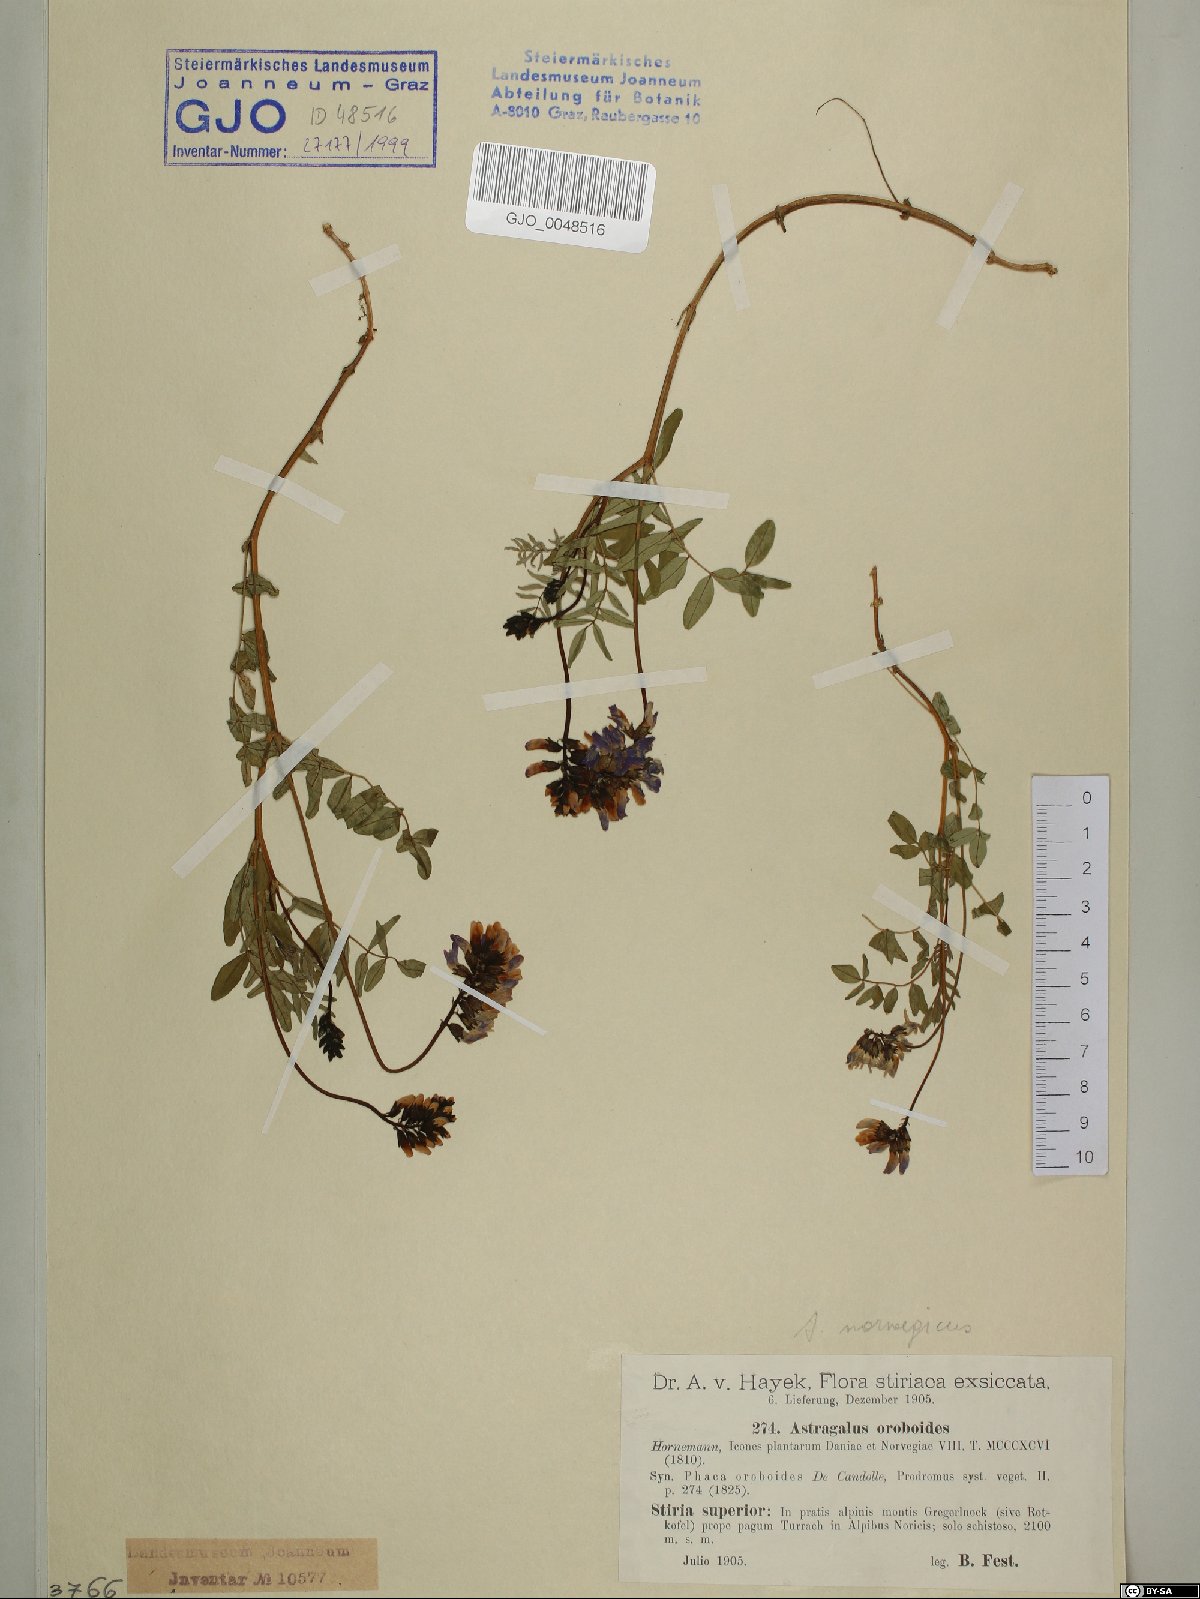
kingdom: Plantae
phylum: Tracheophyta
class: Magnoliopsida
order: Fabales
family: Fabaceae
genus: Astragalus
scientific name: Astragalus norvegicus
